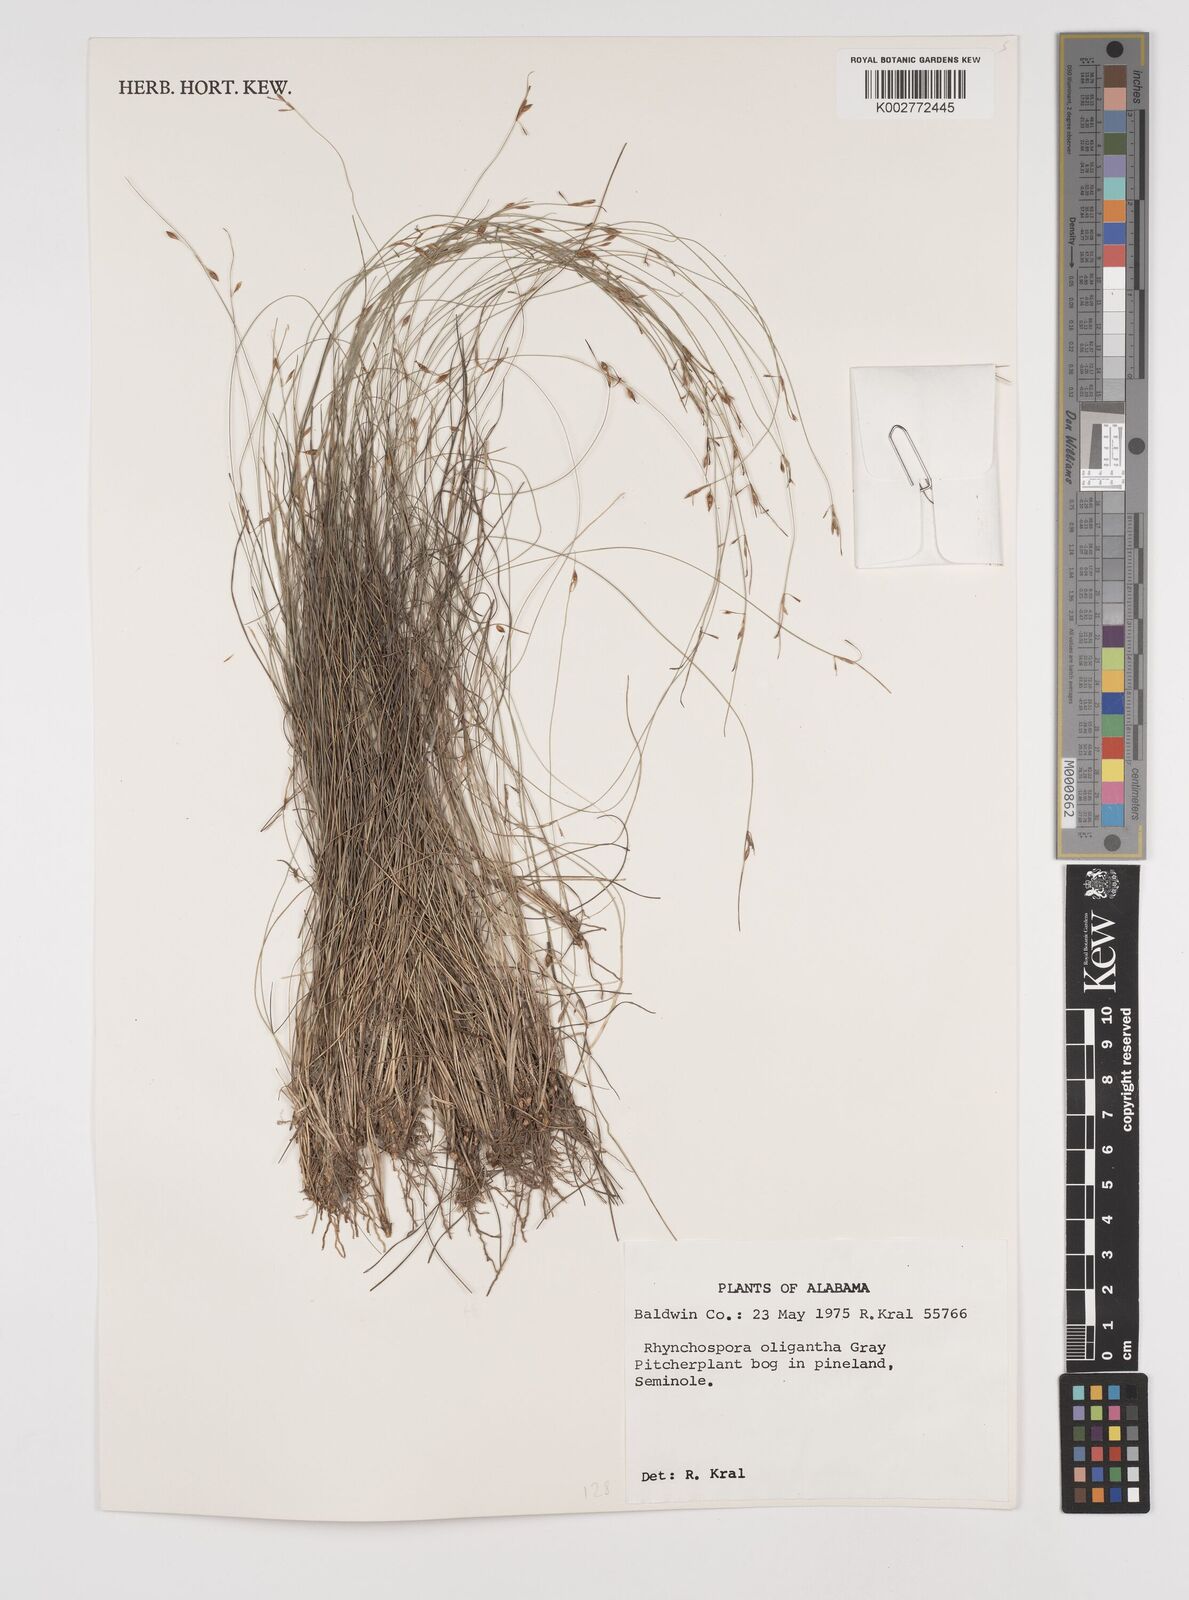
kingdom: Plantae
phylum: Tracheophyta
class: Liliopsida
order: Poales
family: Cyperaceae
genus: Rhynchospora
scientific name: Rhynchospora oligantha
